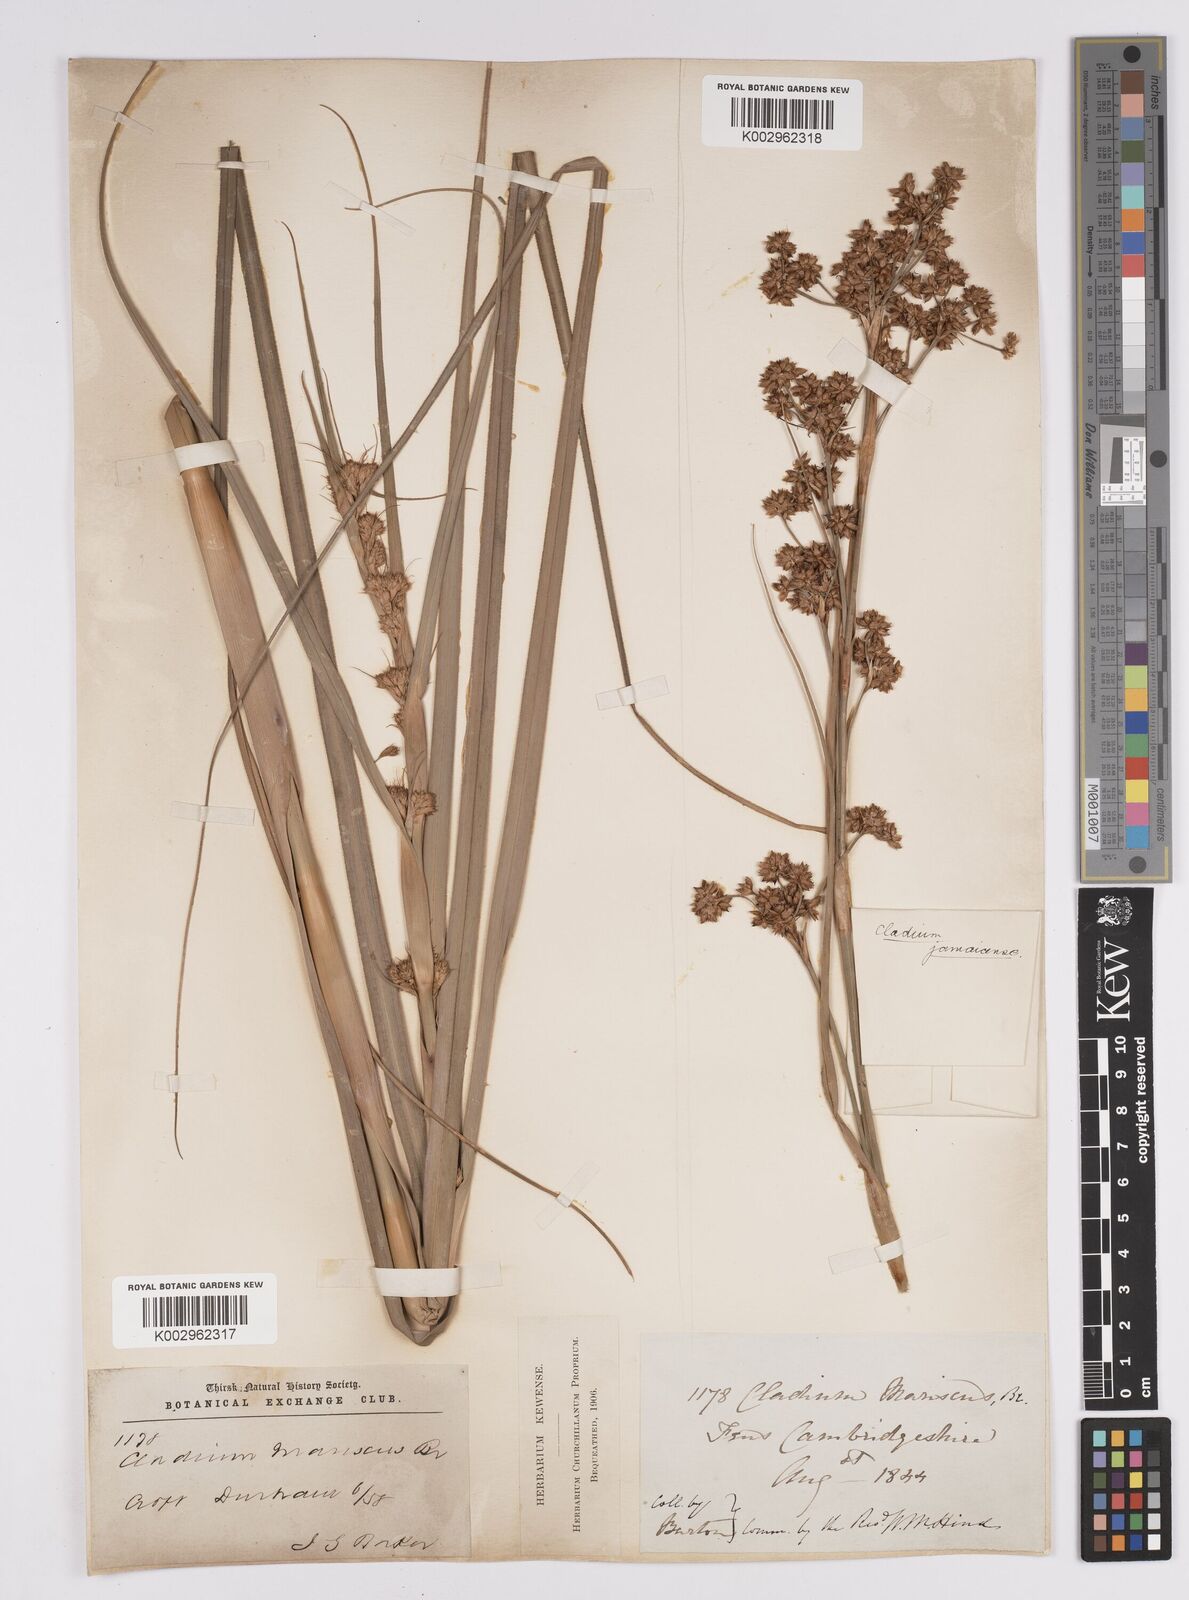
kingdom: Plantae
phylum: Tracheophyta
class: Liliopsida
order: Poales
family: Cyperaceae
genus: Cladium
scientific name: Cladium mariscus
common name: Great fen-sedge
